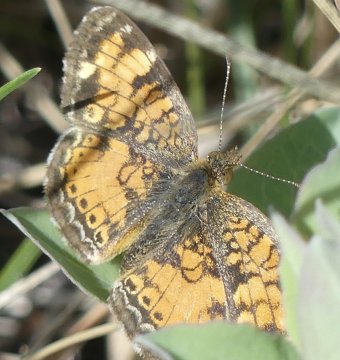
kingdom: Animalia
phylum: Arthropoda
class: Insecta
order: Lepidoptera
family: Nymphalidae
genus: Phyciodes
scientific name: Phyciodes tharos
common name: Northern Crescent
